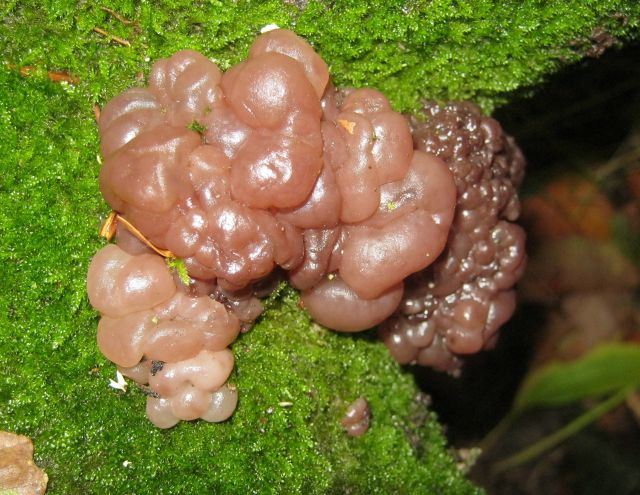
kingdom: Fungi
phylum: Ascomycota
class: Leotiomycetes
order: Helotiales
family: Gelatinodiscaceae
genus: Ascotremella
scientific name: Ascotremella faginea
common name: hjerne-bævreskive
